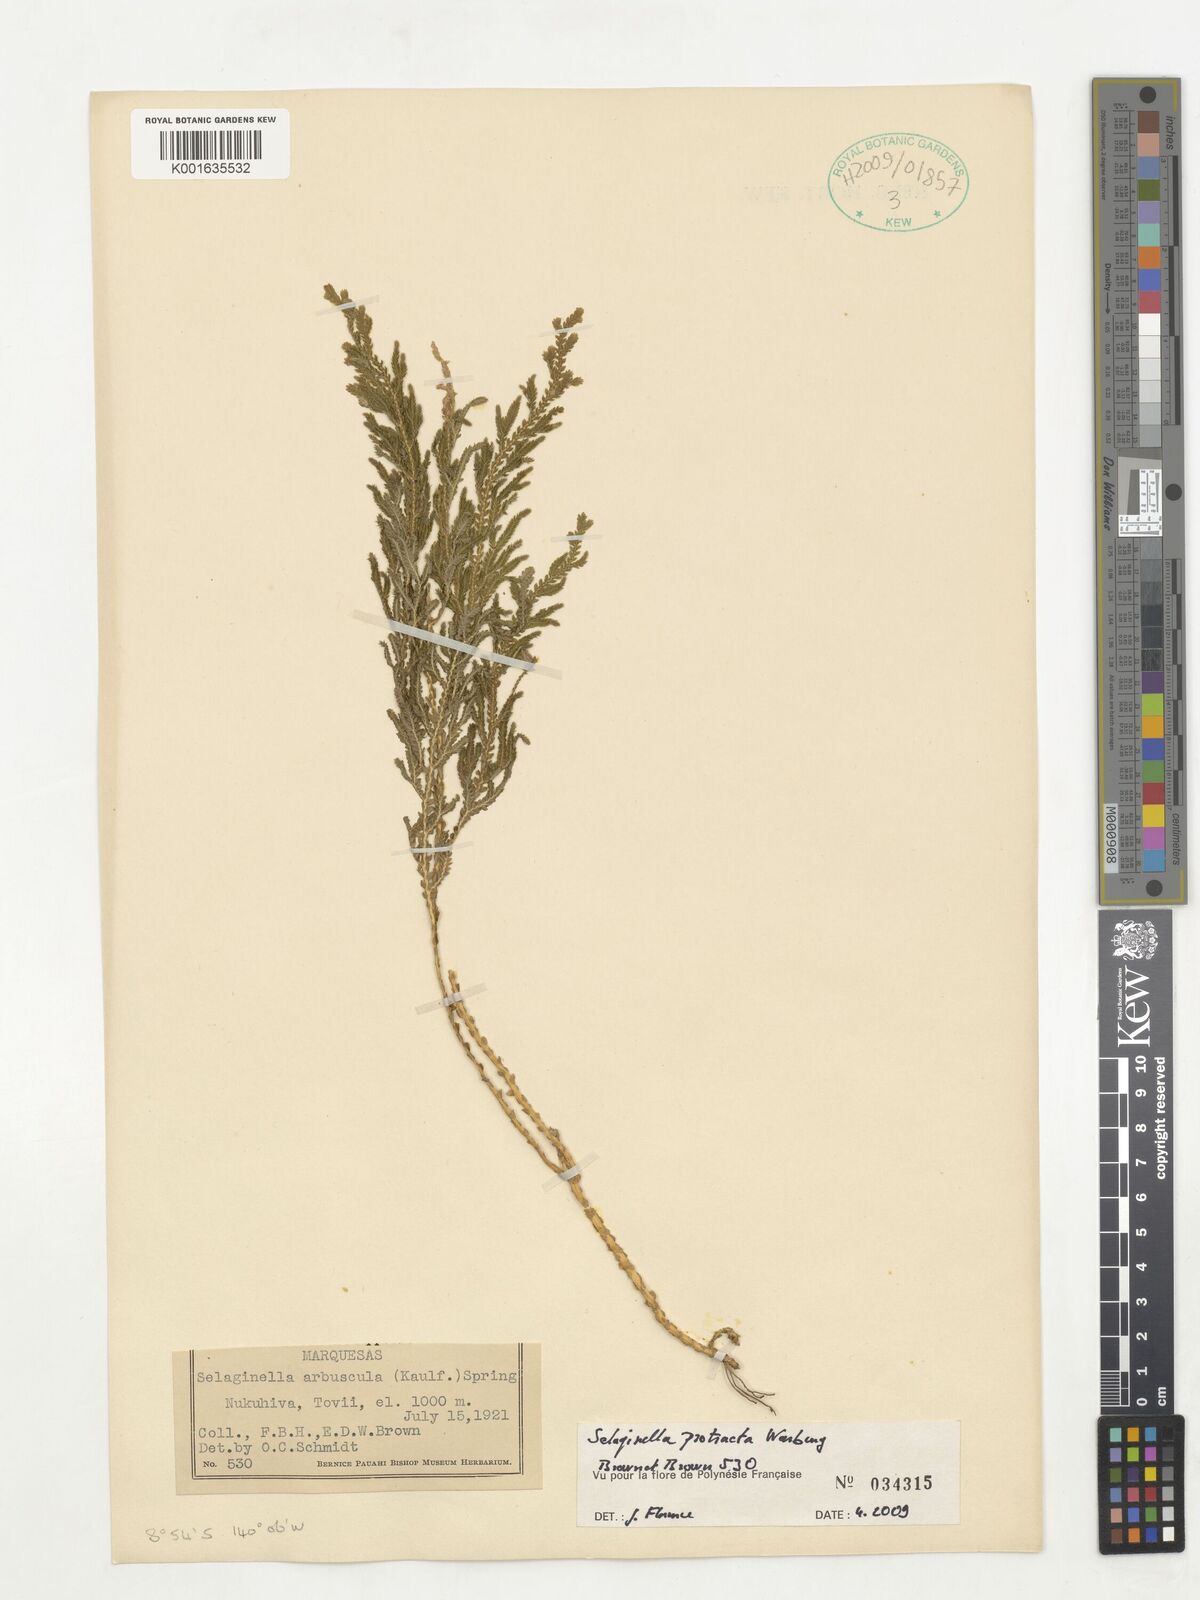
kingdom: Plantae
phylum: Tracheophyta
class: Lycopodiopsida
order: Selaginellales
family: Selaginellaceae
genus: Selaginella
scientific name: Selaginella arbuscula
